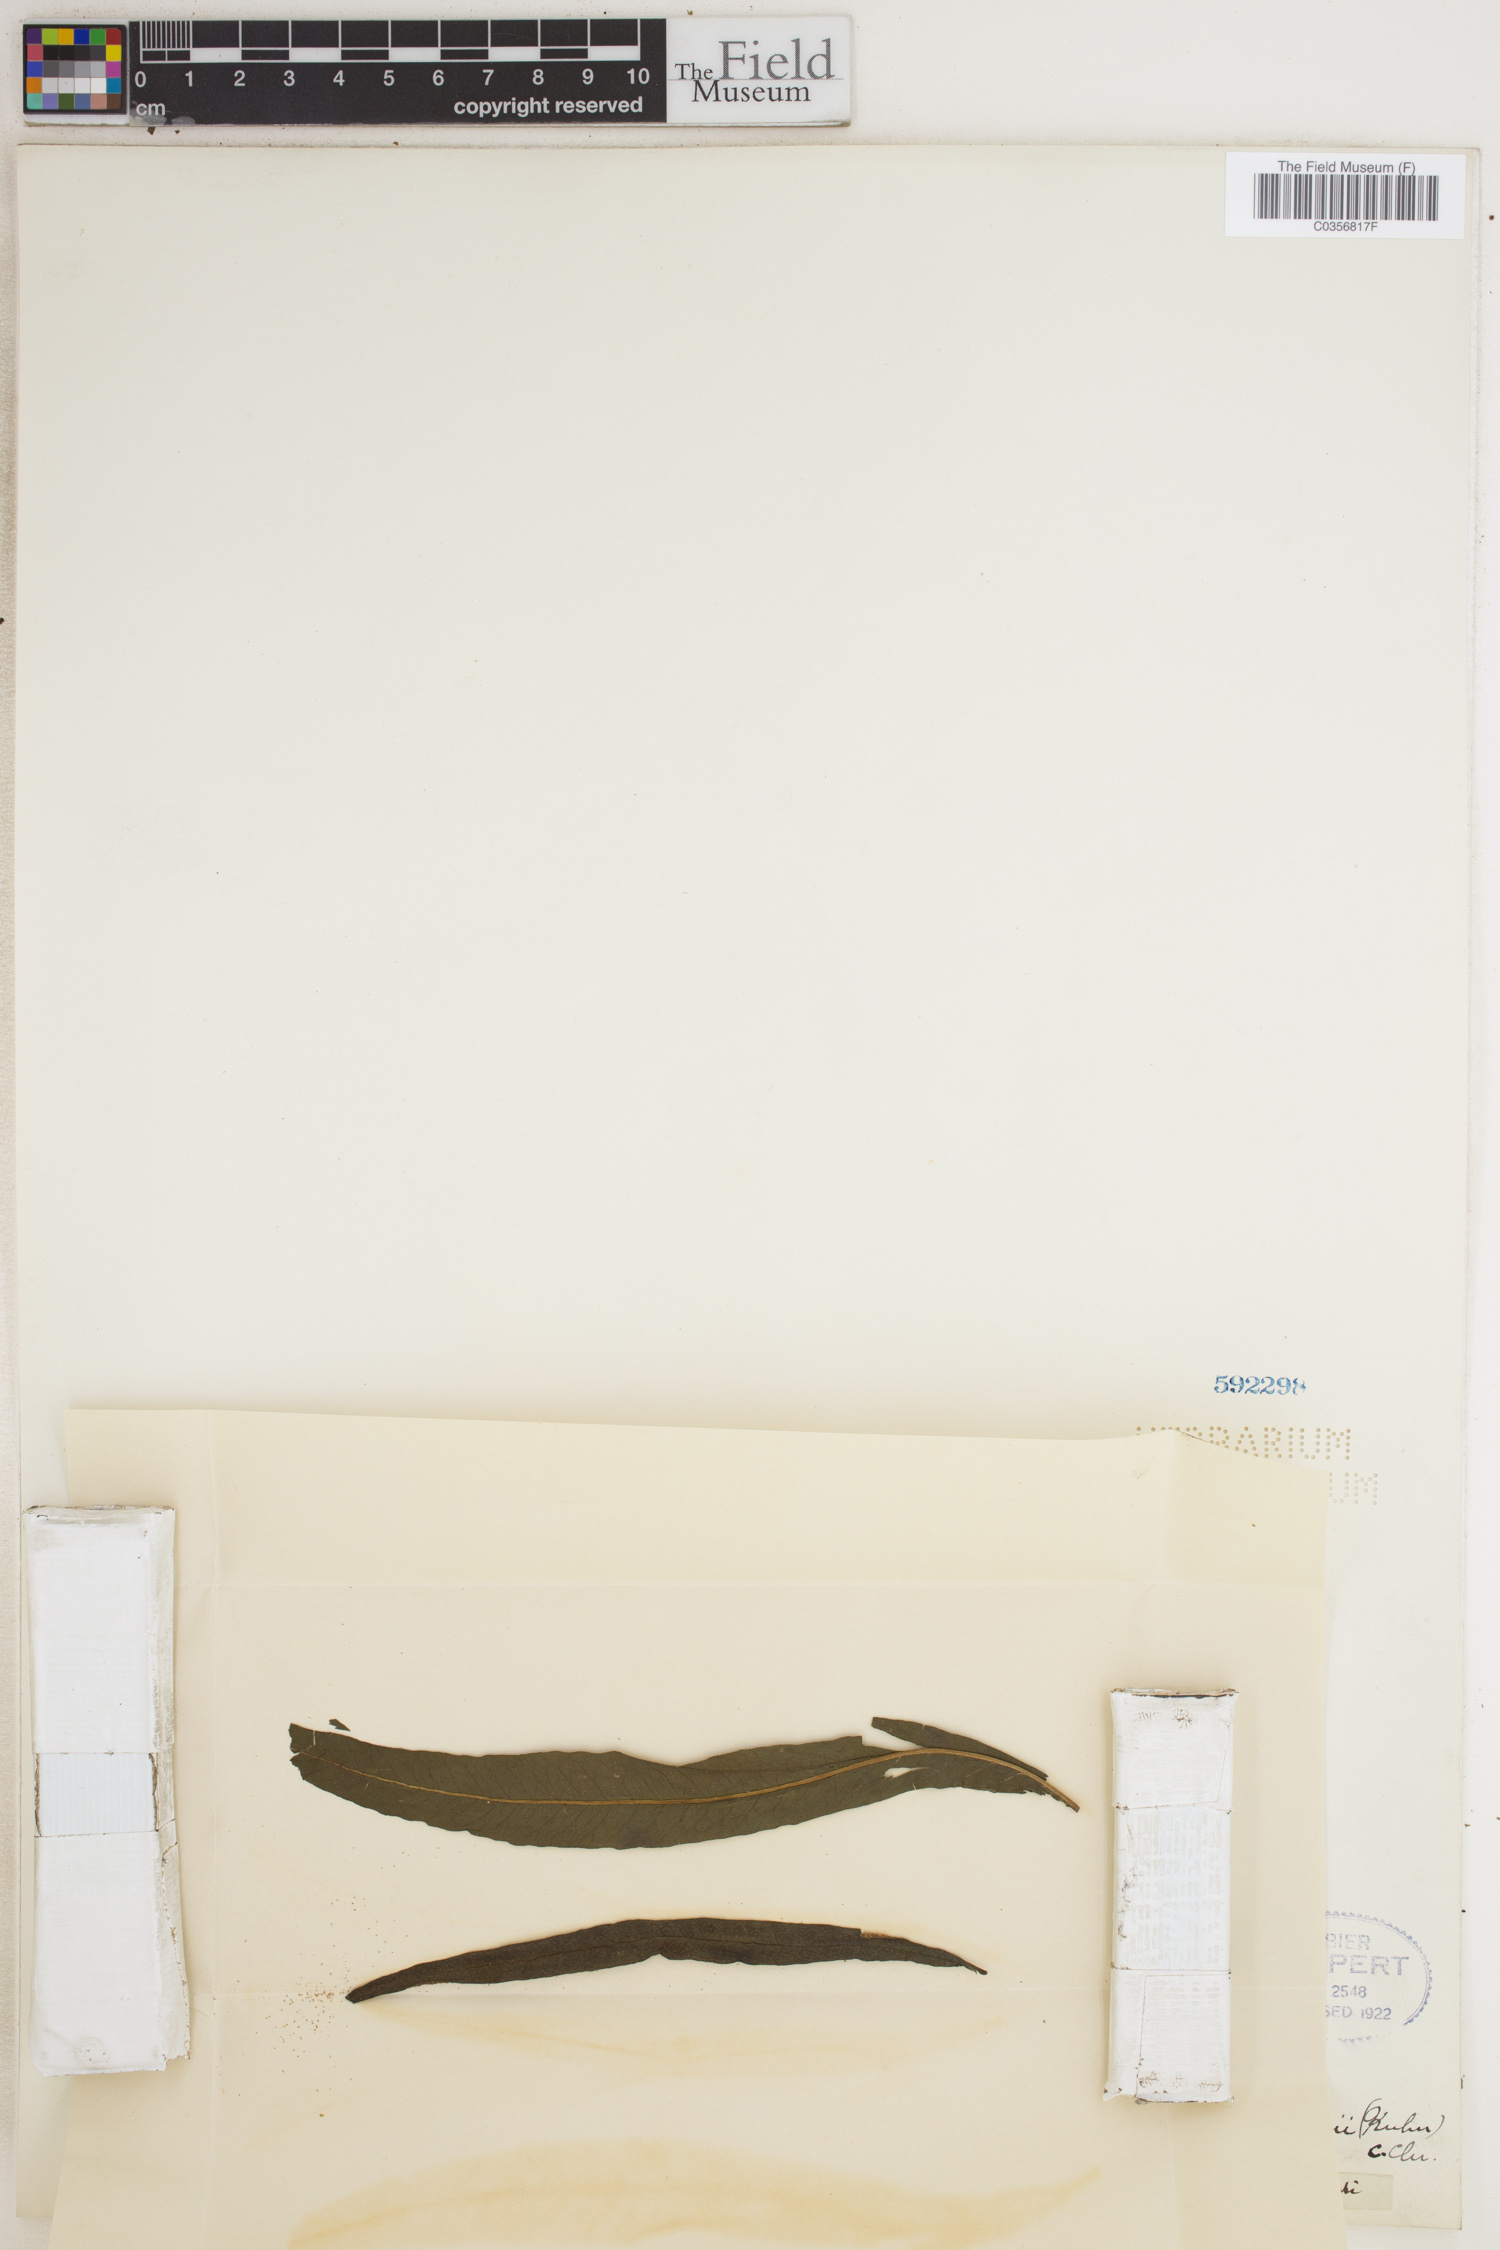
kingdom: Plantae
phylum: Tracheophyta
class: Polypodiopsida
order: Polypodiales
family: Dryopteridaceae
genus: Bolbitis
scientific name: Bolbitis
